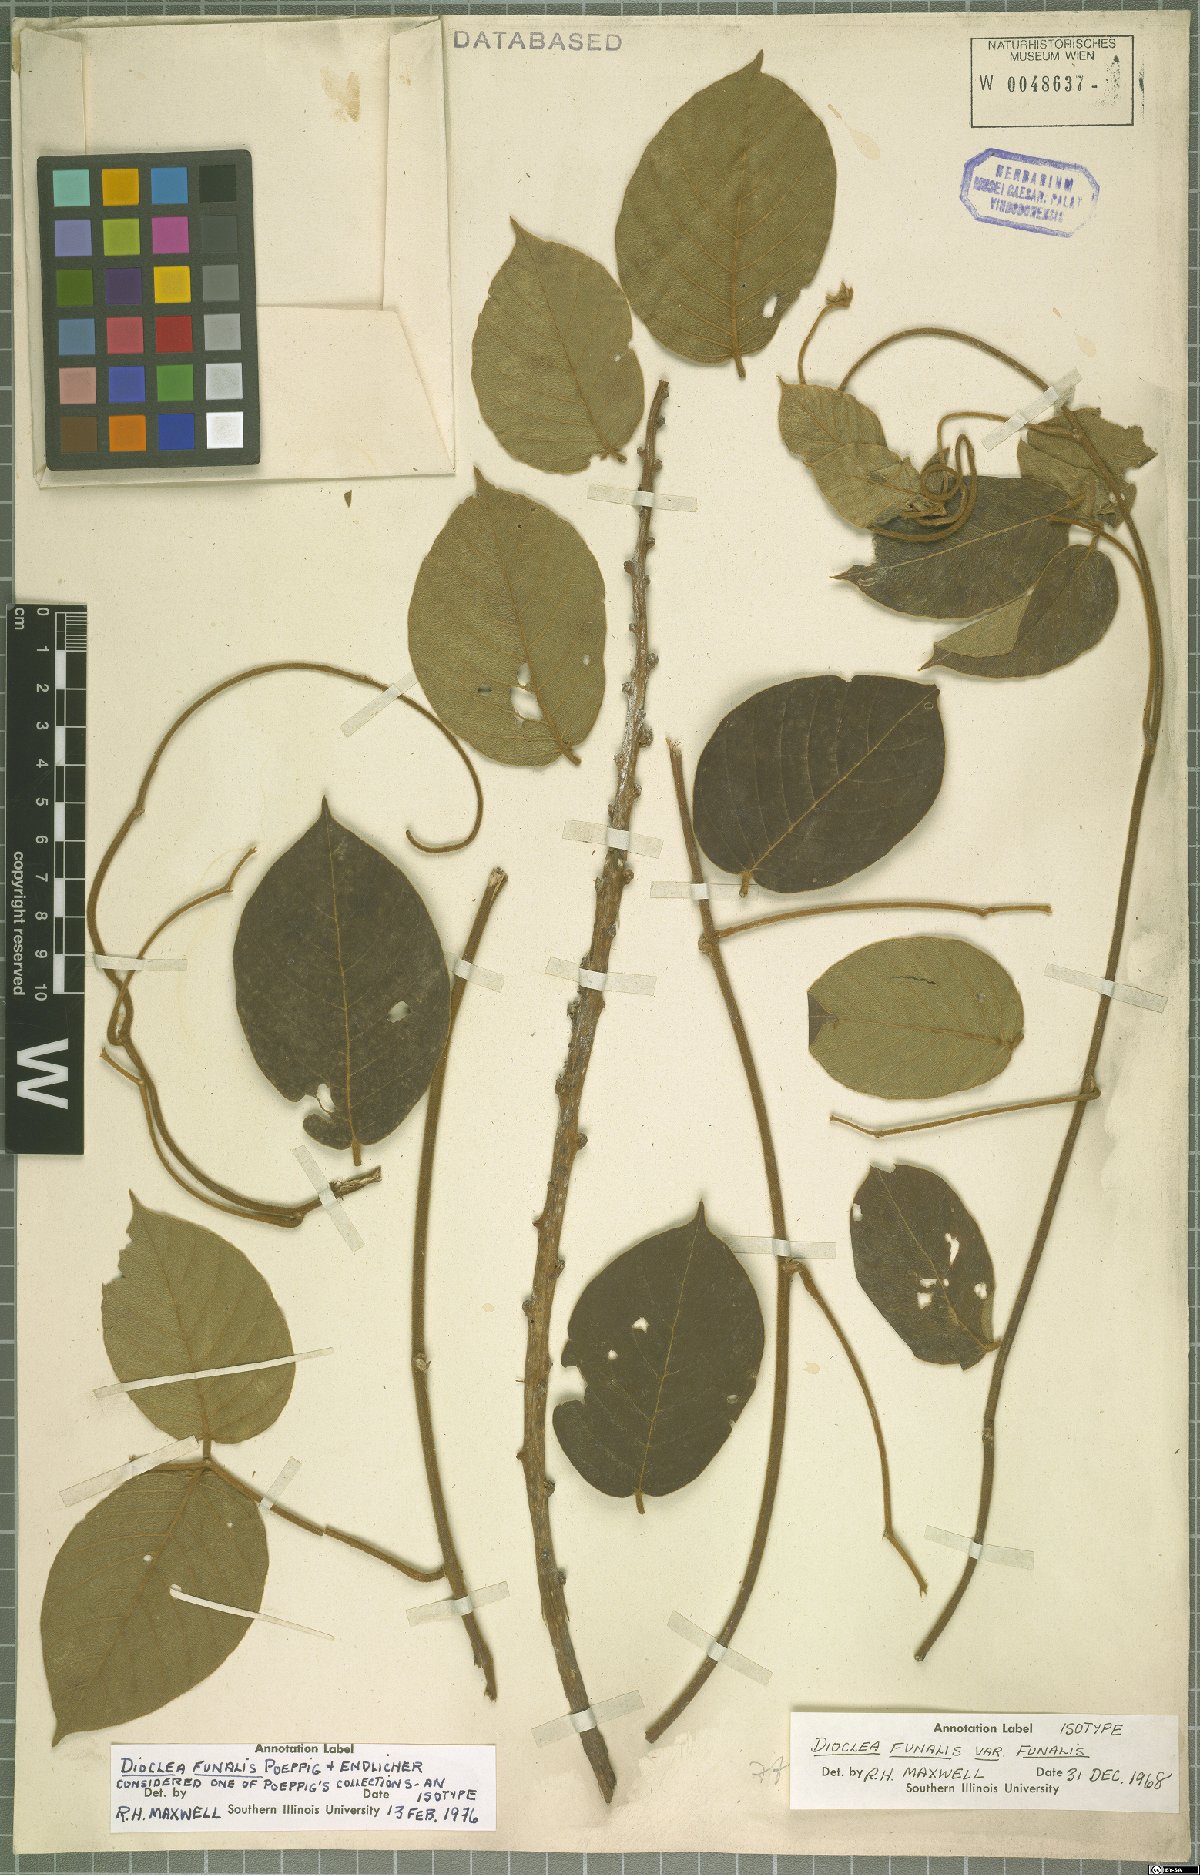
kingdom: Plantae
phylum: Tracheophyta
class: Magnoliopsida
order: Fabales
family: Fabaceae
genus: Macropsychanthus
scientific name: Macropsychanthus funalis
